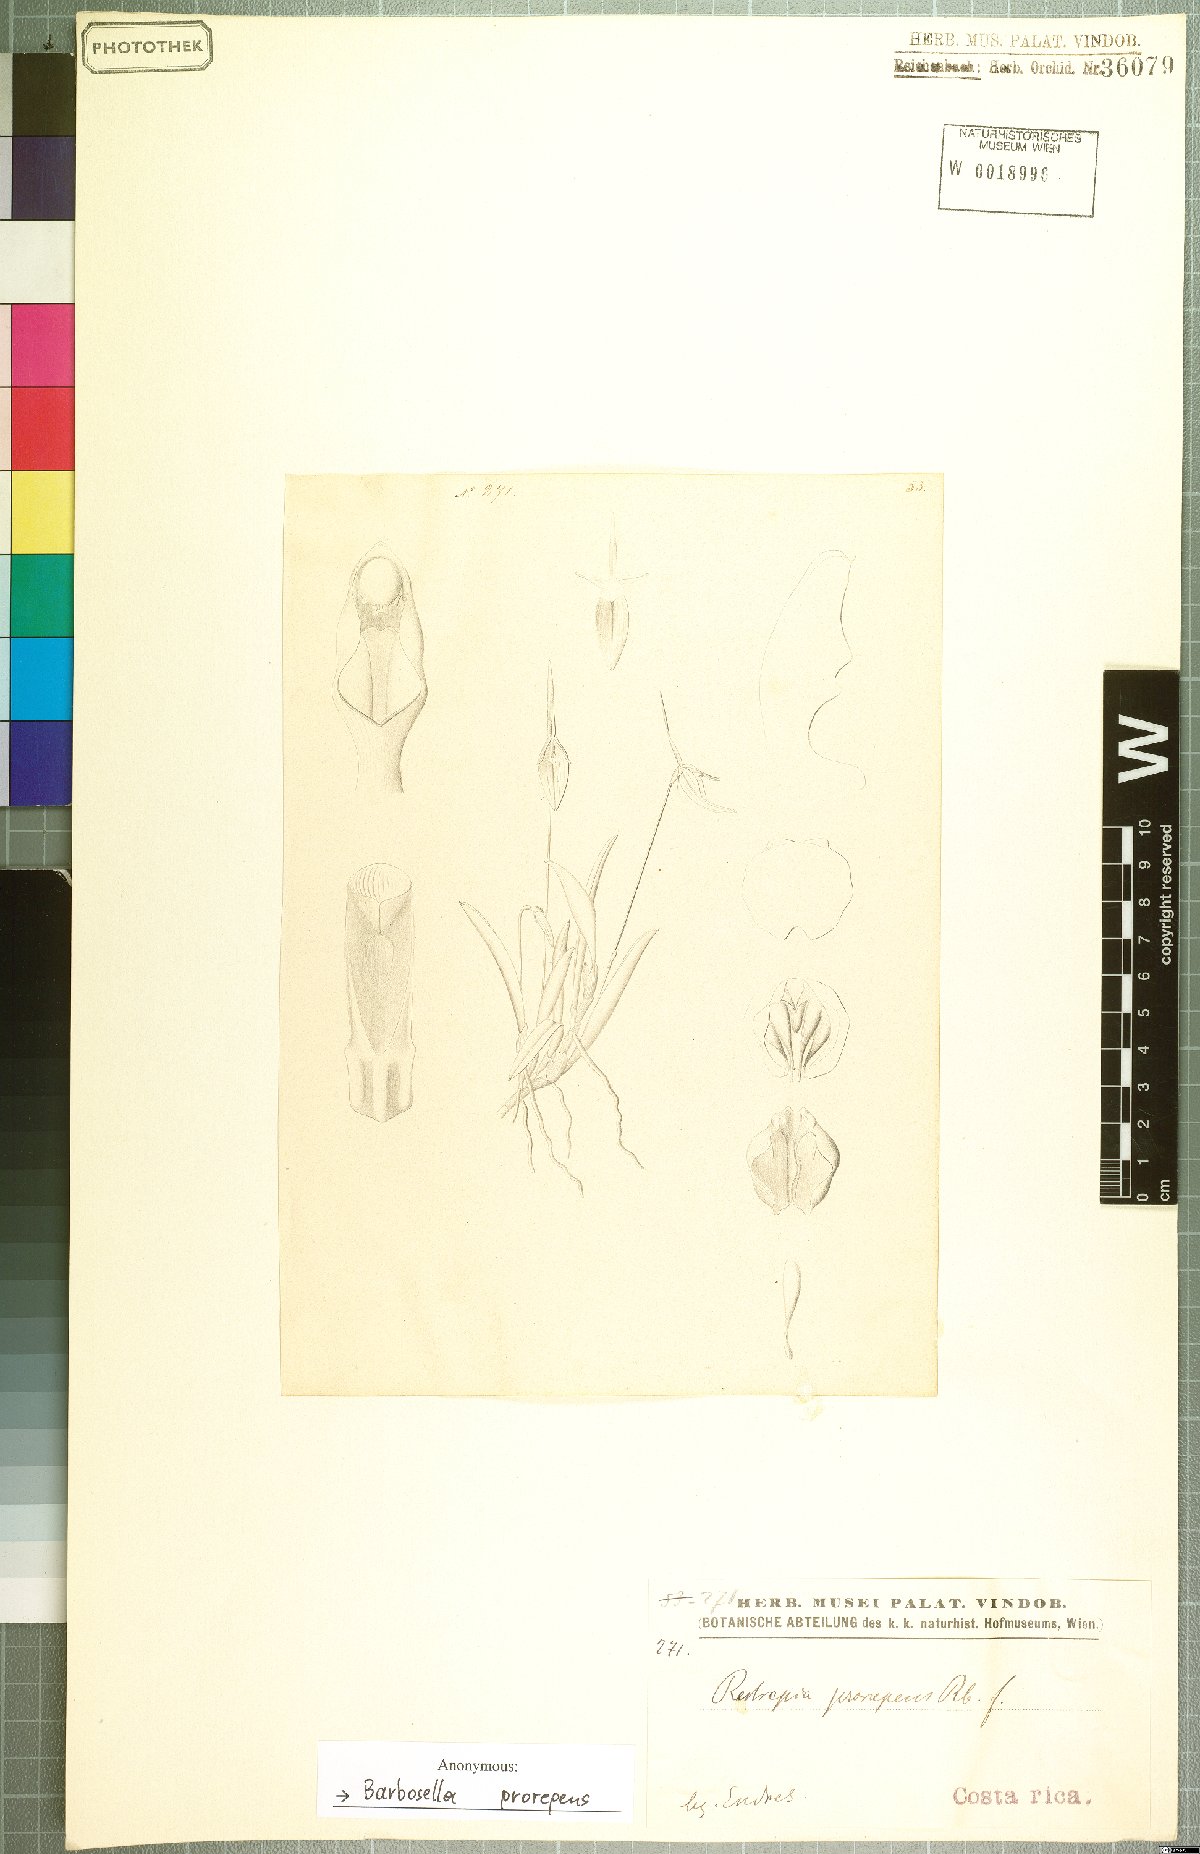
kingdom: Plantae
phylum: Tracheophyta
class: Liliopsida
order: Asparagales
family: Orchidaceae
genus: Barbosella
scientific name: Barbosella prorepens
